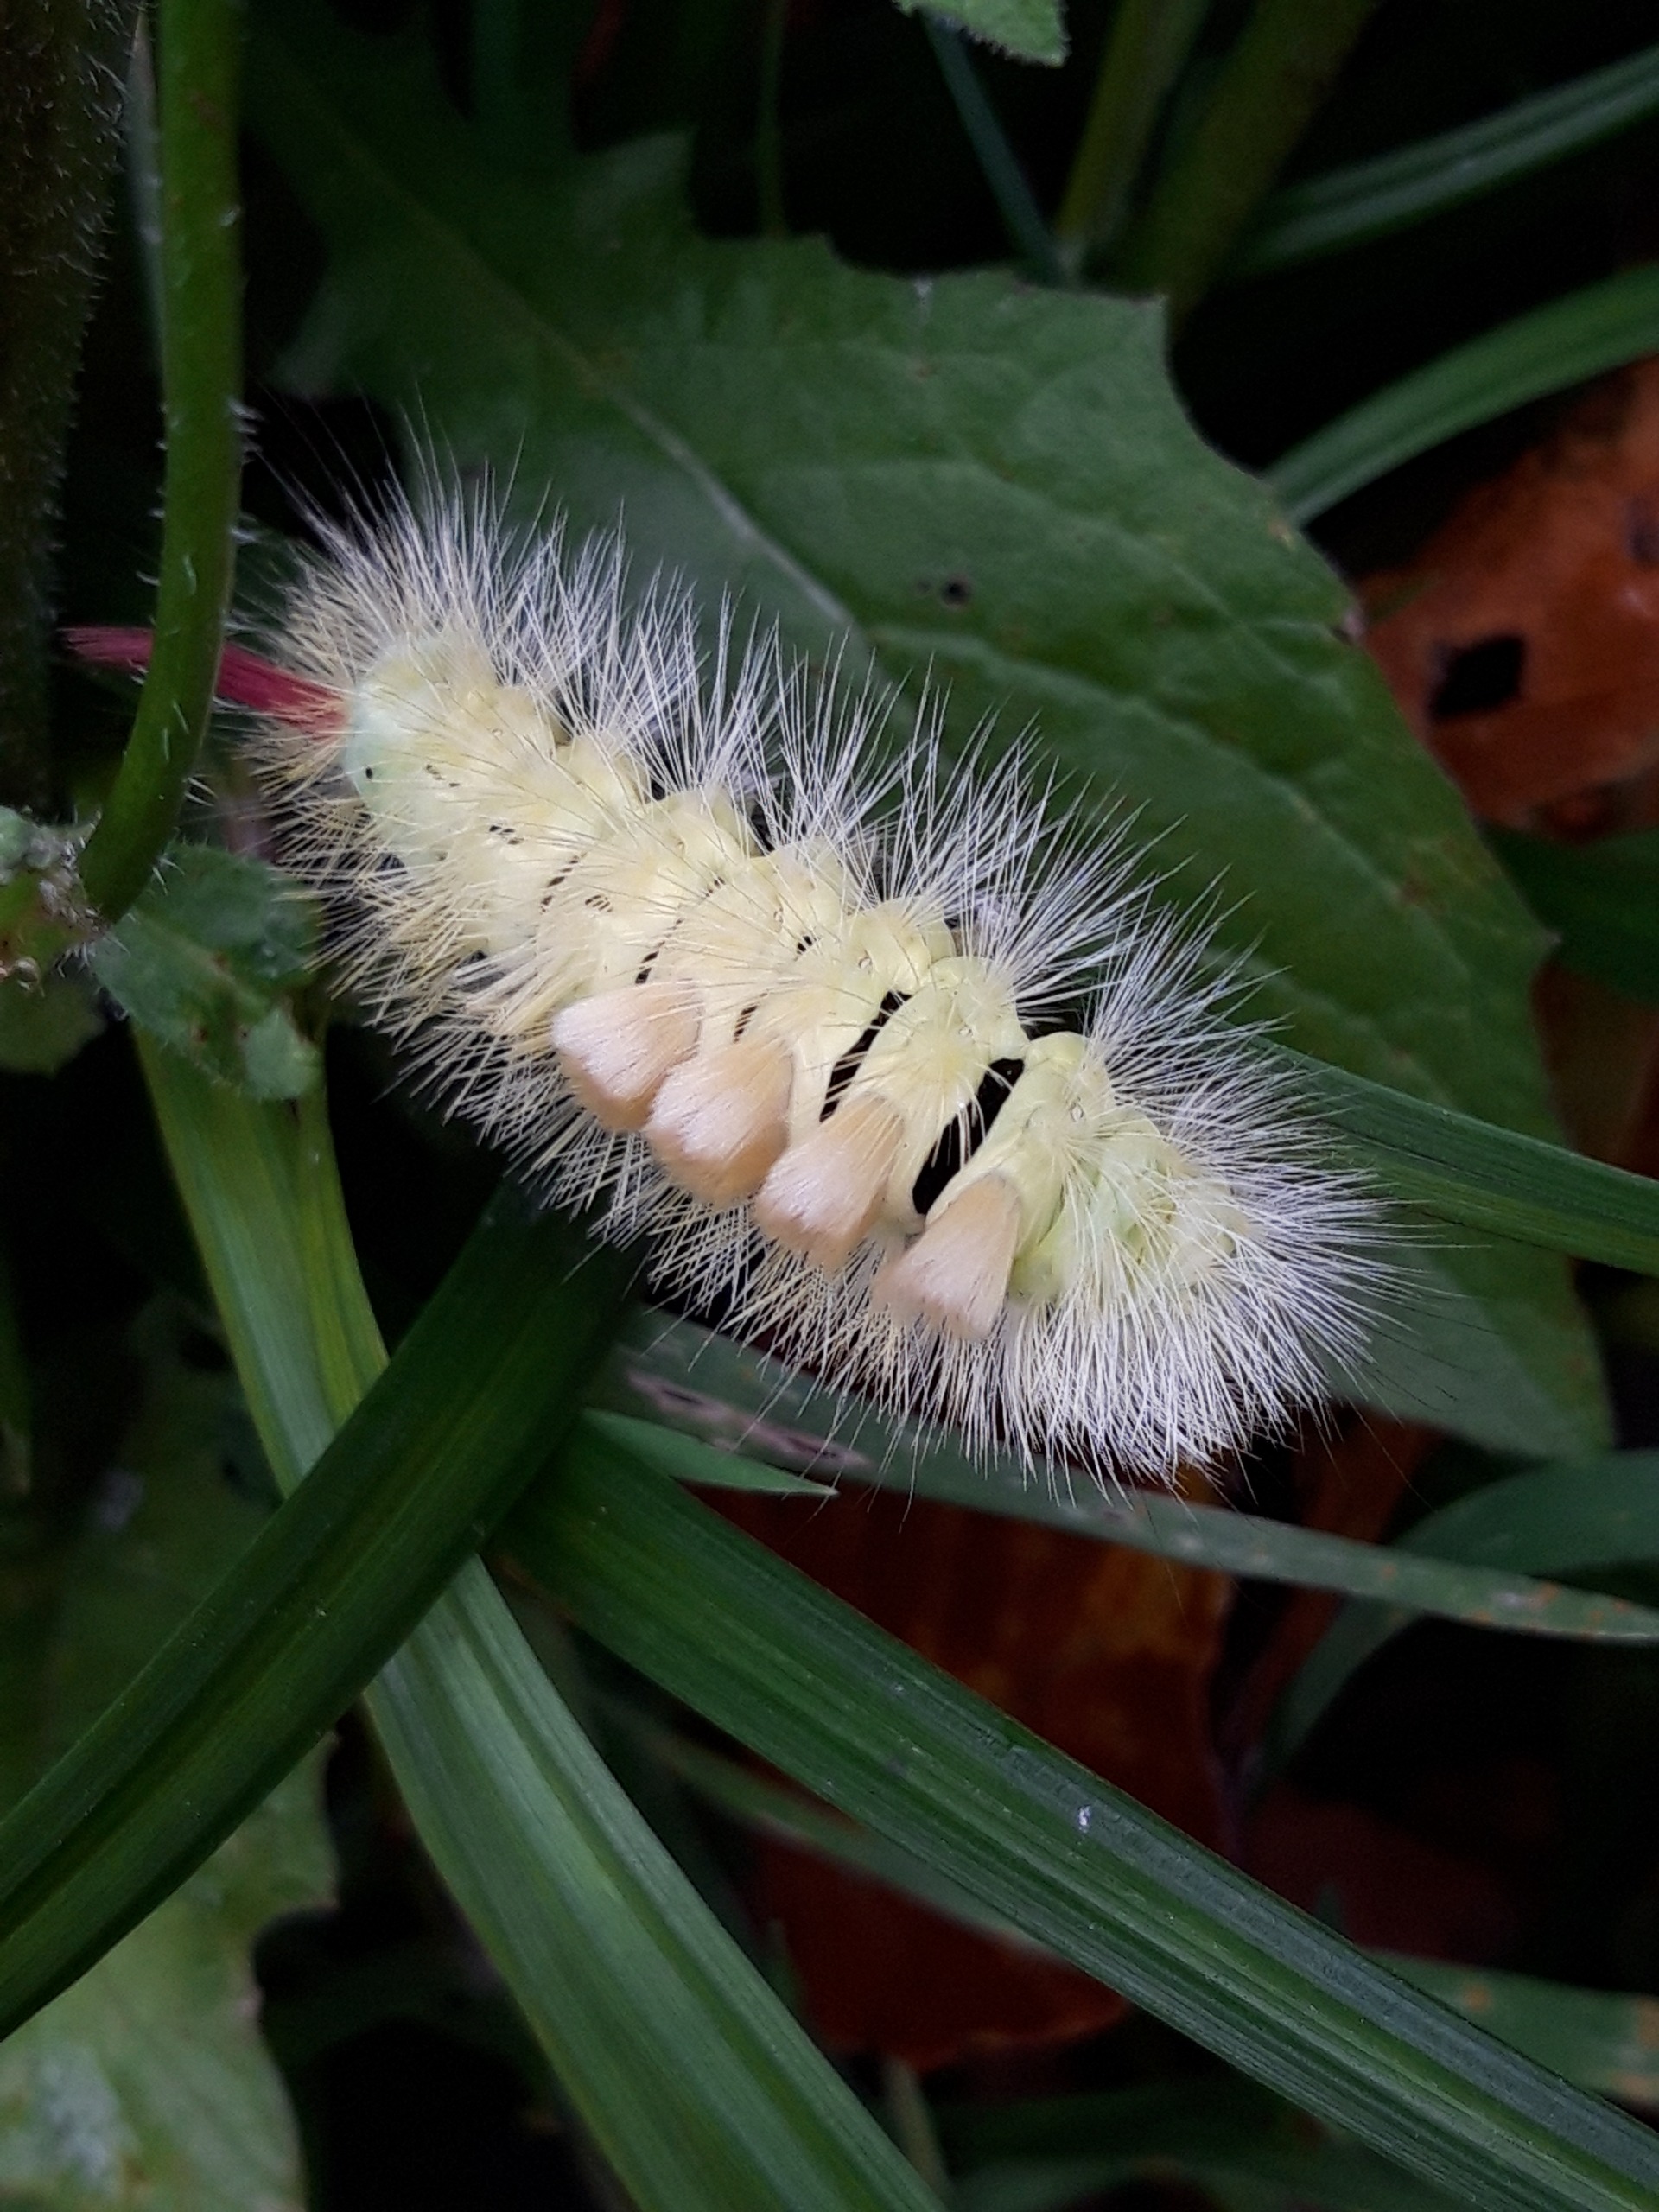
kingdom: Animalia
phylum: Arthropoda
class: Insecta
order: Lepidoptera
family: Erebidae
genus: Calliteara
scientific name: Calliteara pudibunda
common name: Bøgenonne
